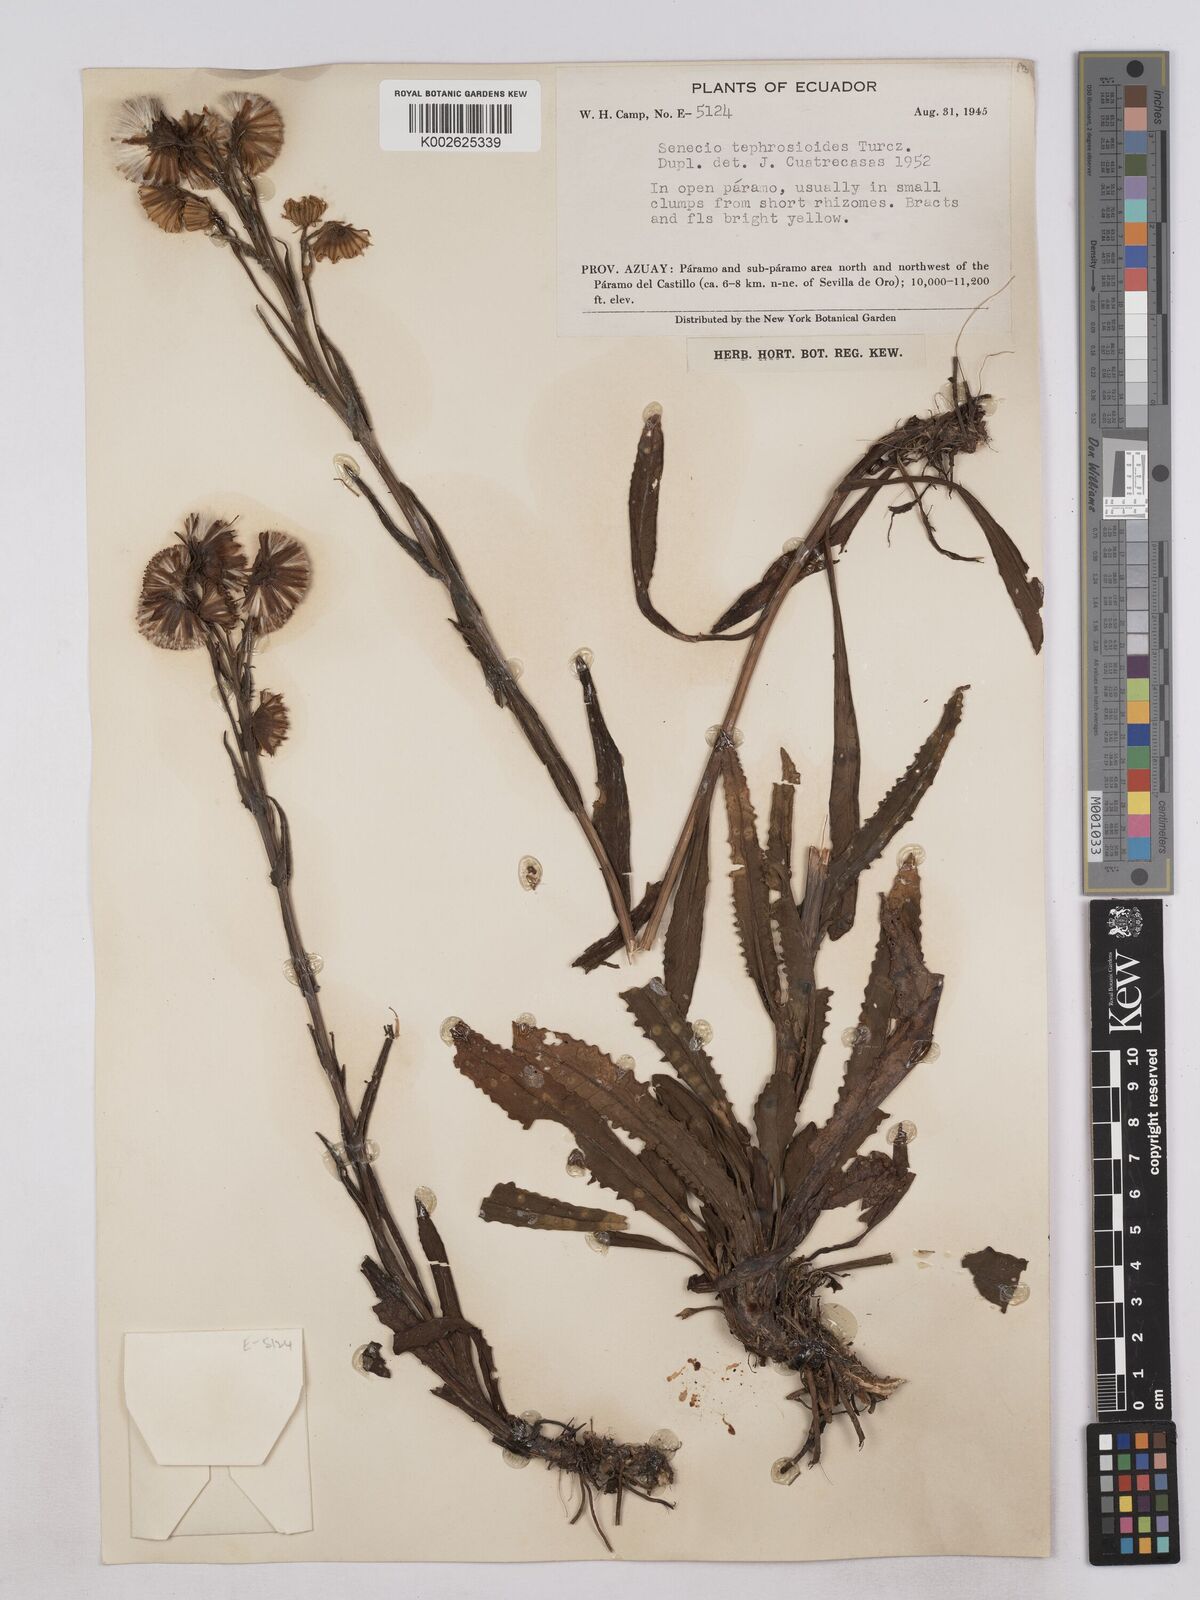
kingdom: Plantae
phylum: Tracheophyta
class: Magnoliopsida
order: Asterales
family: Asteraceae
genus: Senecio
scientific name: Senecio tephrosioides
